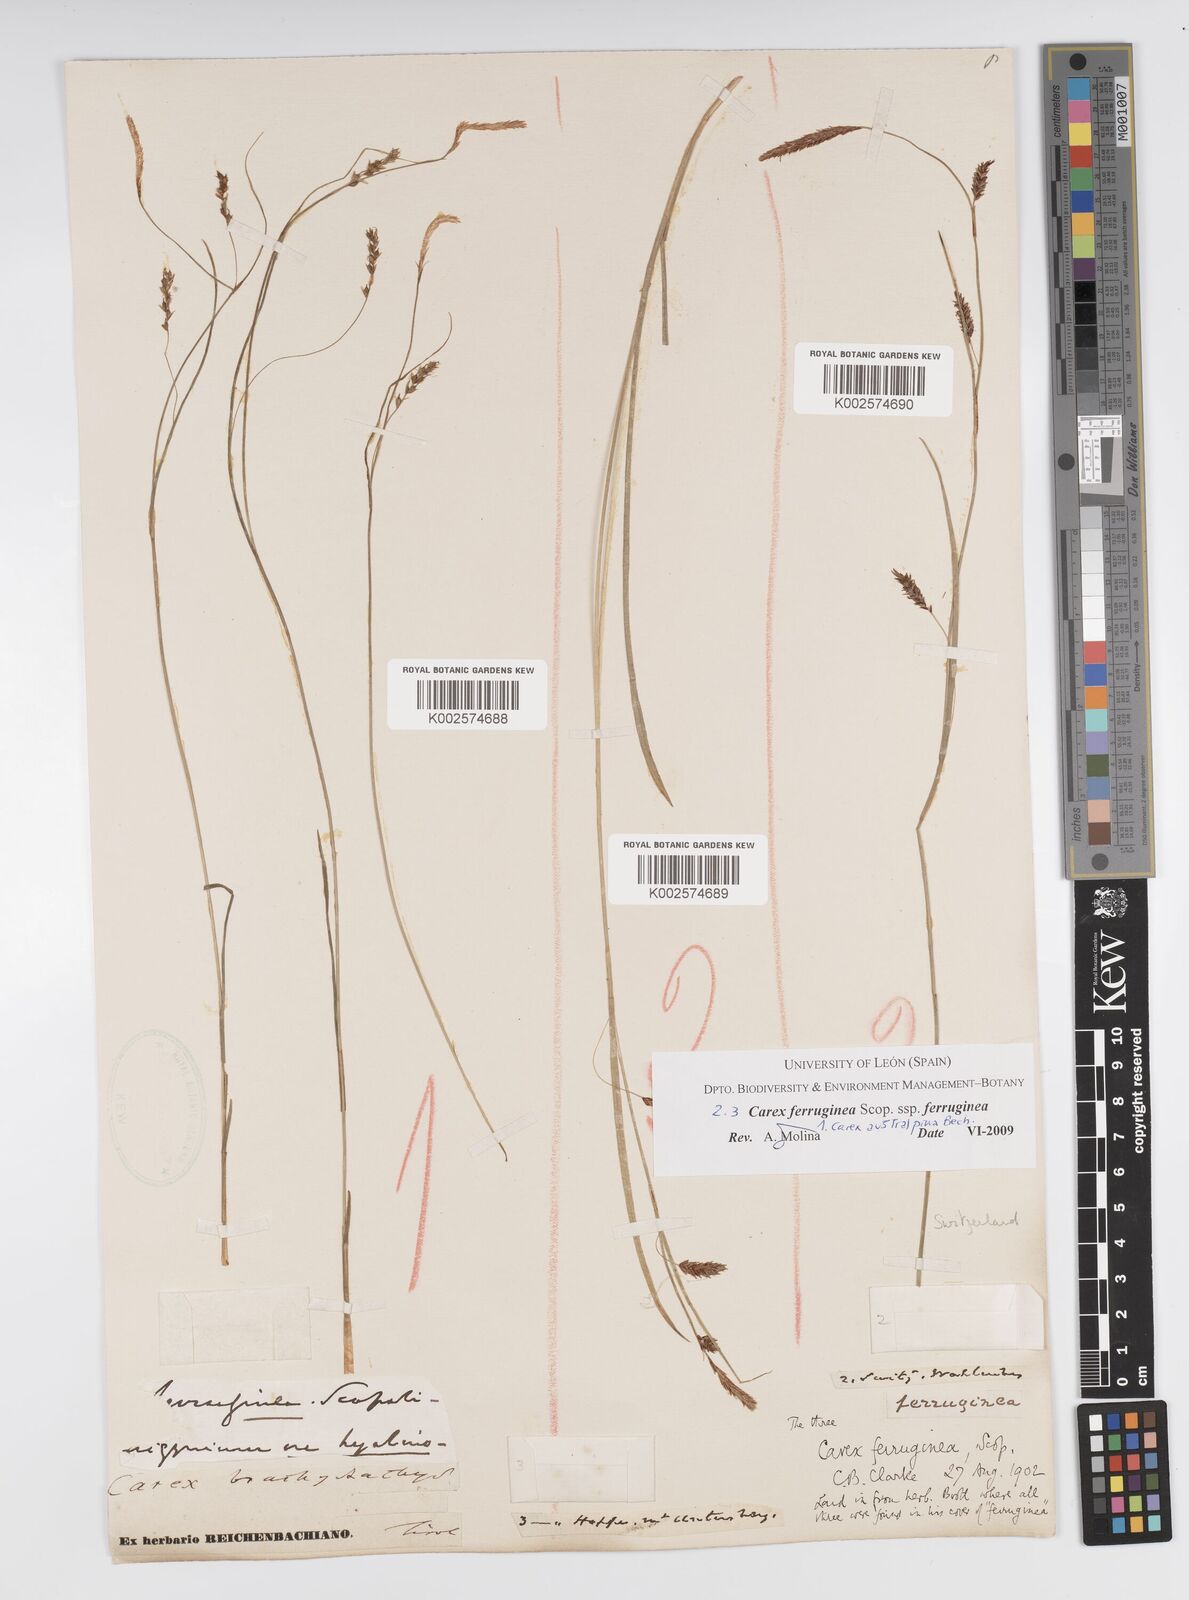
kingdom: Plantae
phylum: Tracheophyta
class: Liliopsida
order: Poales
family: Cyperaceae
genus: Carex
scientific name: Carex ferruginea
